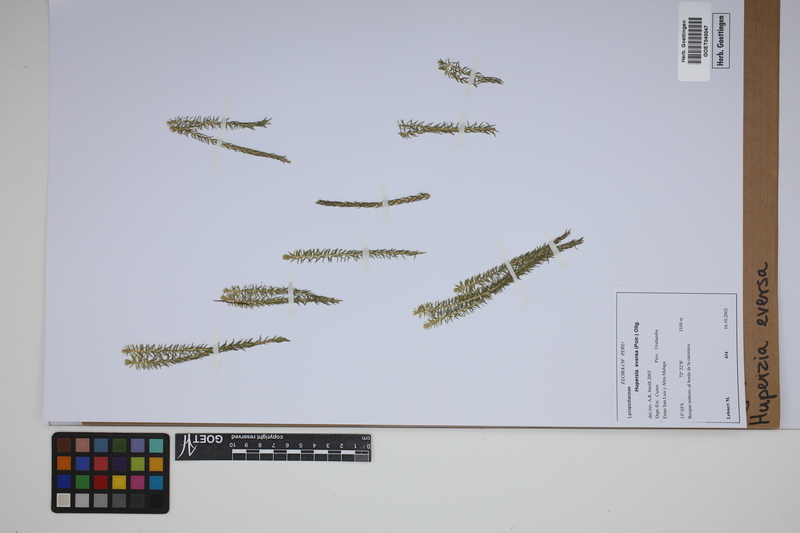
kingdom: Plantae
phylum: Tracheophyta
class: Lycopodiopsida
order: Lycopodiales
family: Lycopodiaceae
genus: Phlegmariurus
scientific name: Phlegmariurus eversus
